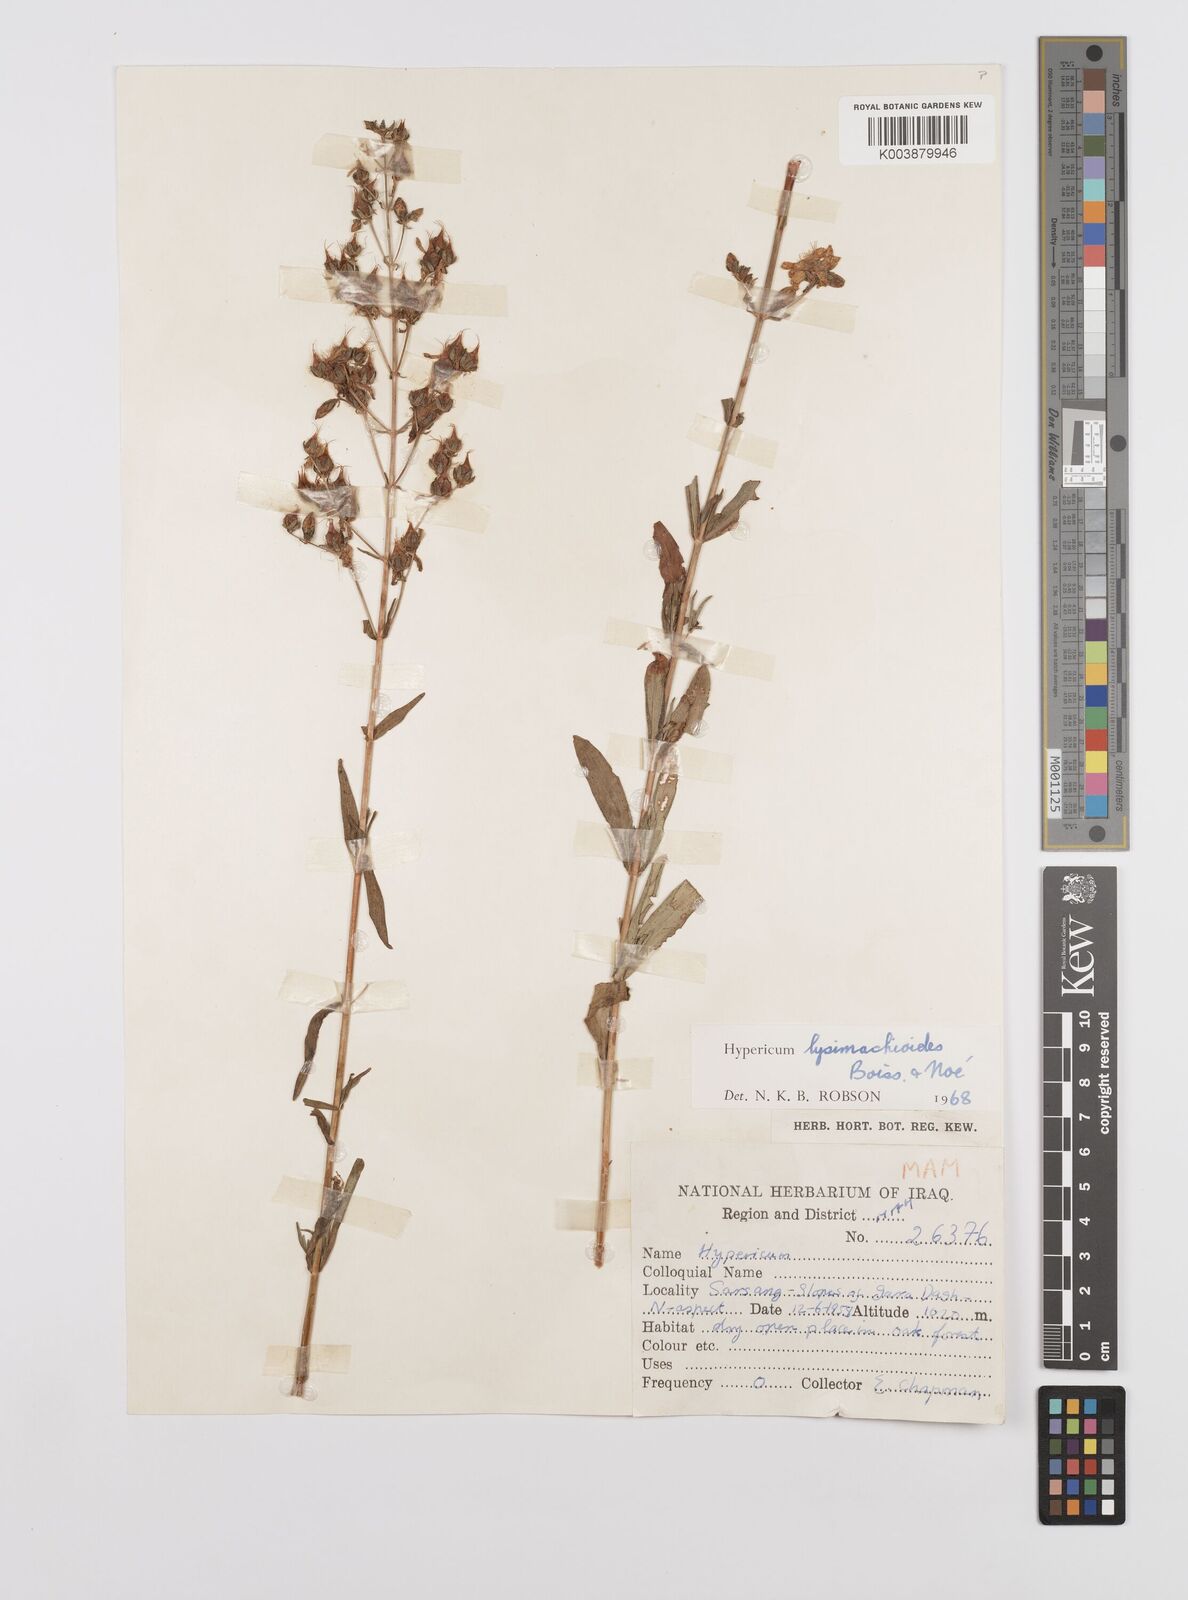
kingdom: Plantae
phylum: Tracheophyta
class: Magnoliopsida
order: Malpighiales
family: Hypericaceae
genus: Hypericum
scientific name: Hypericum lysimachioides
